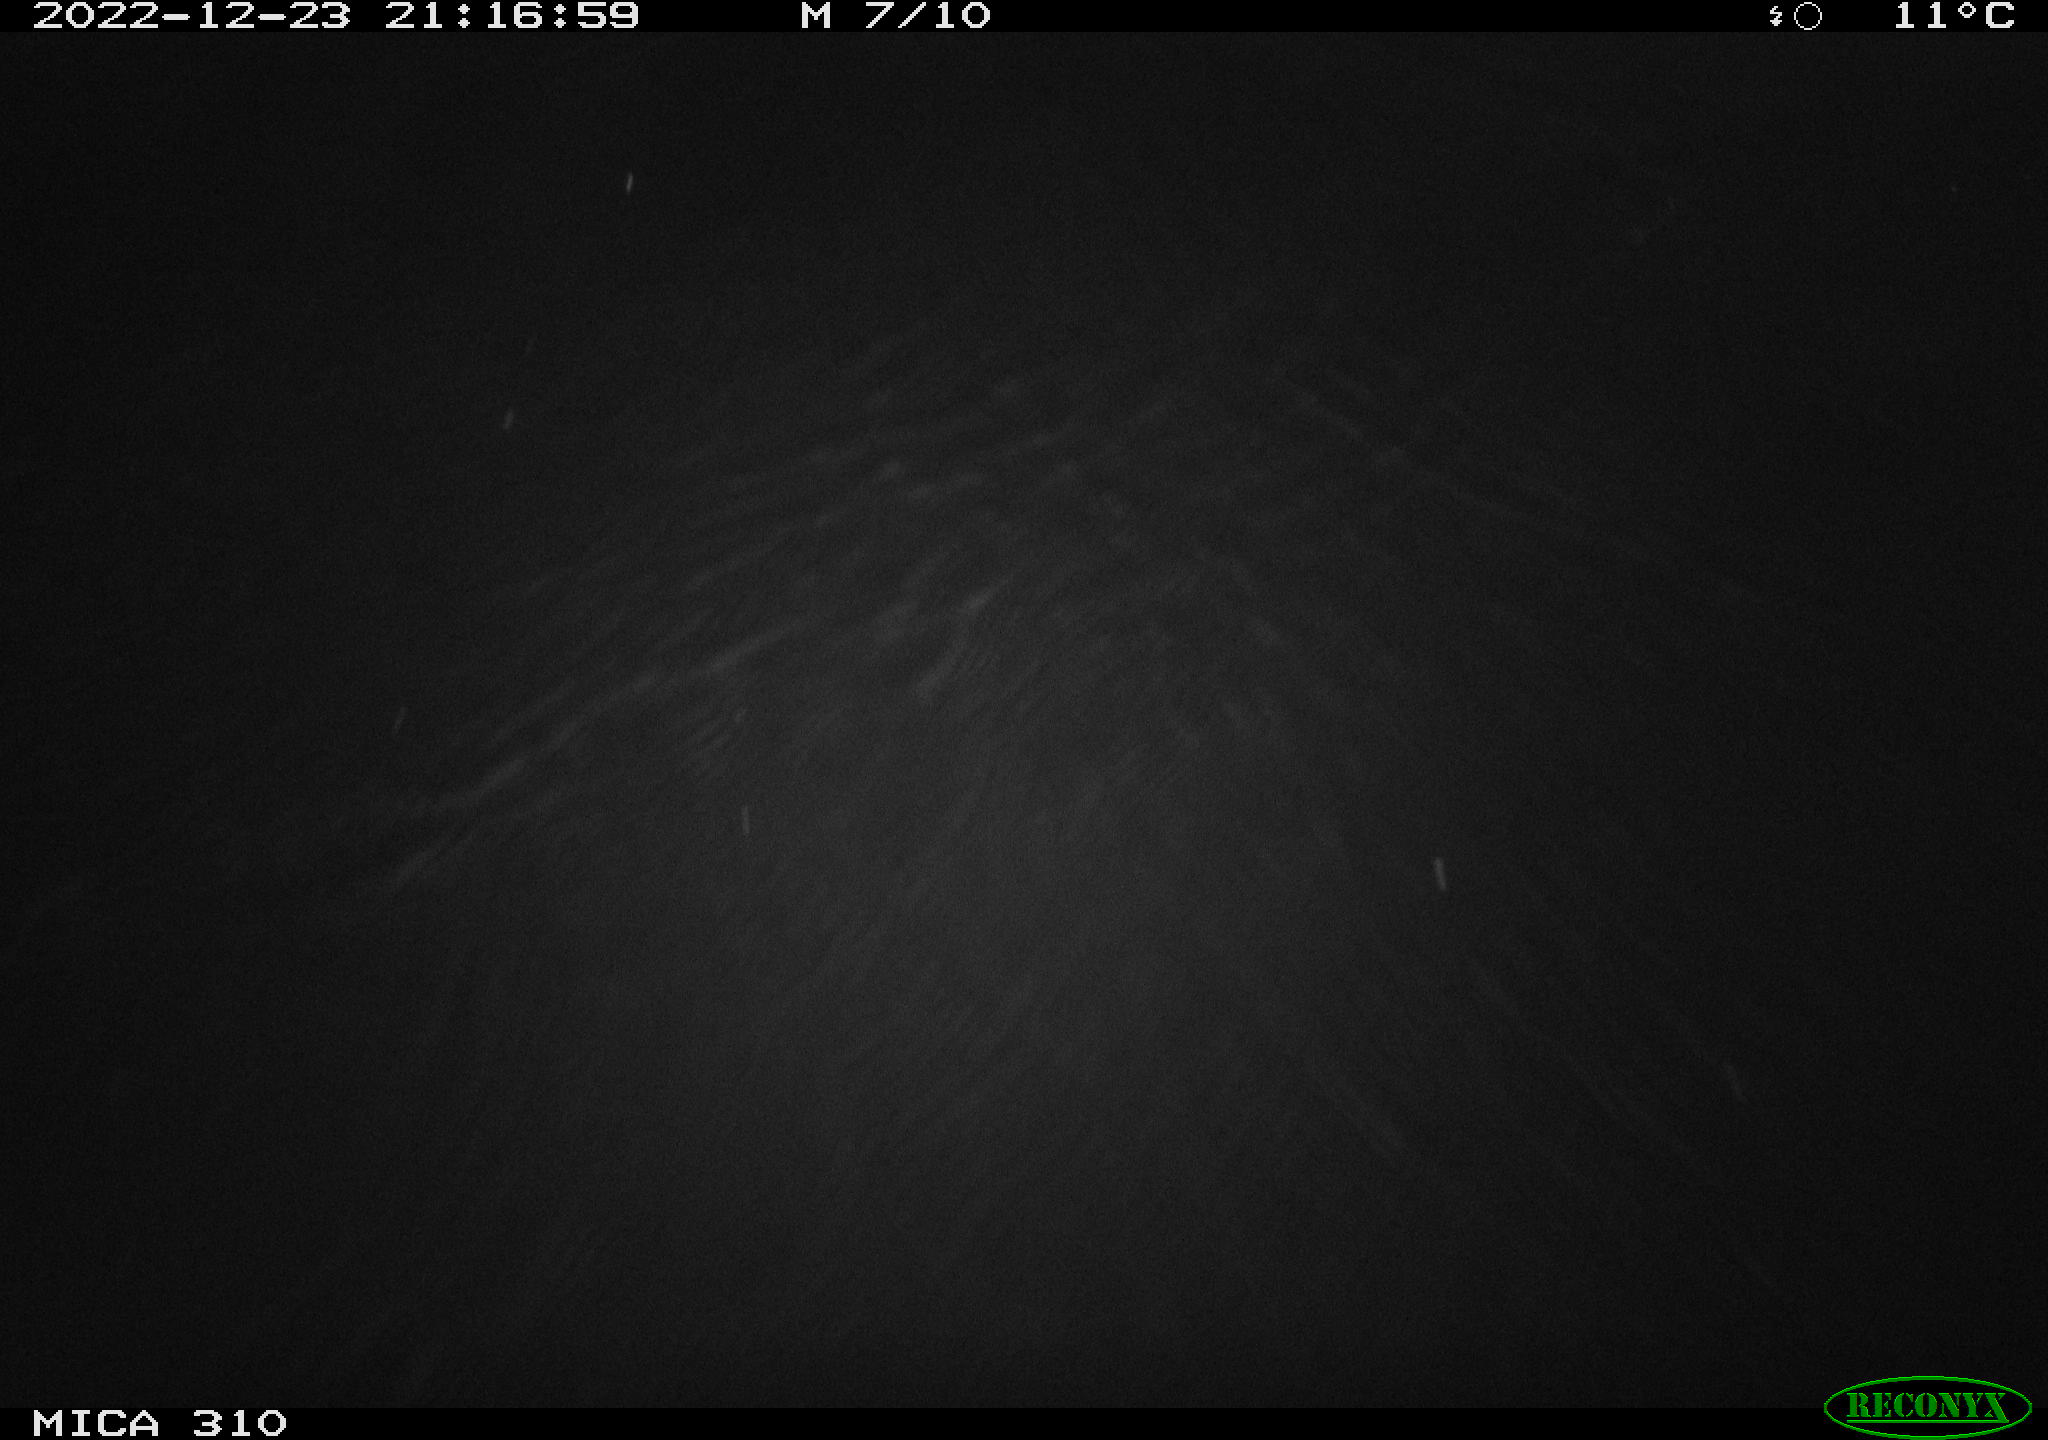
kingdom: Animalia
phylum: Chordata
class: Mammalia
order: Rodentia
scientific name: Rodentia
